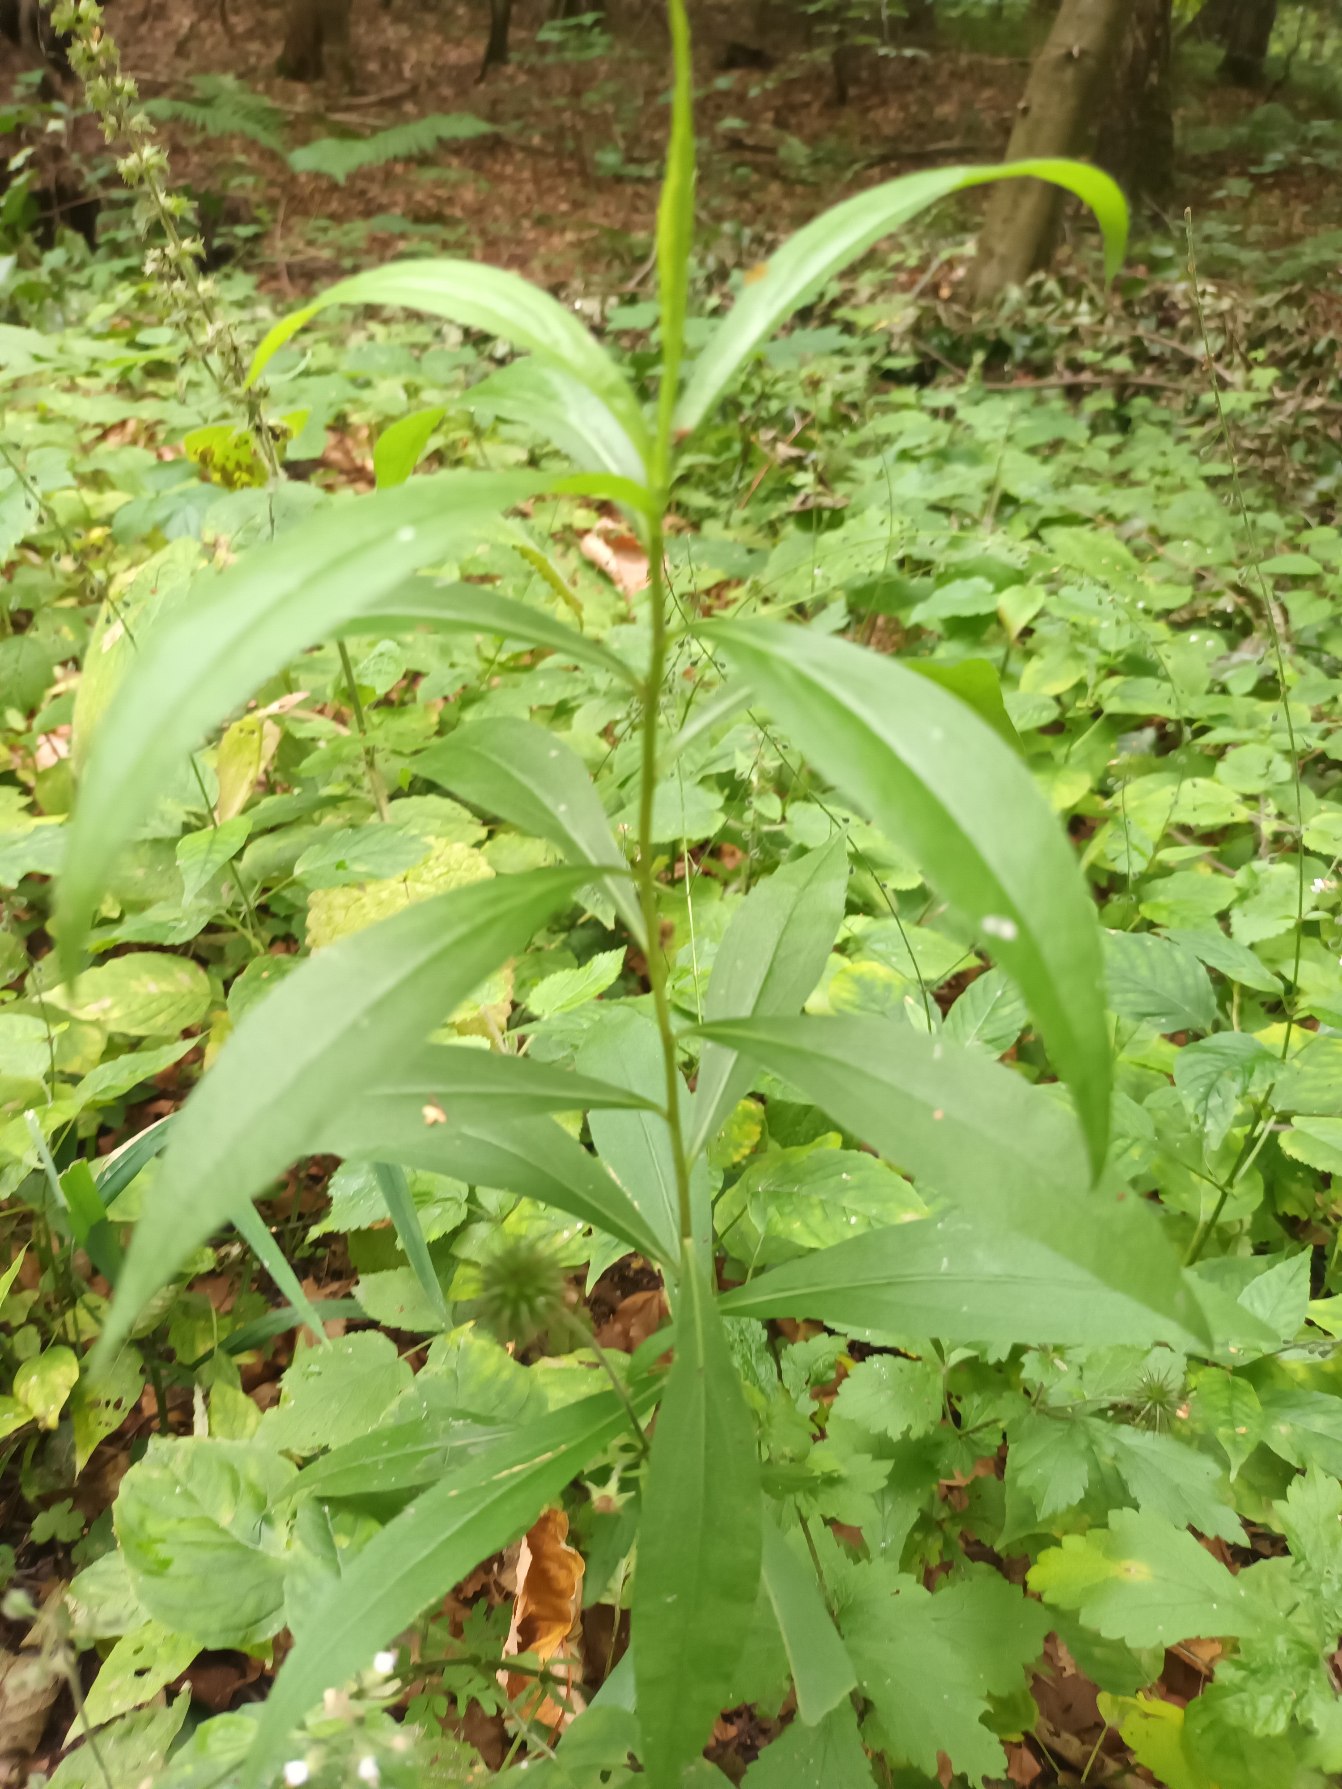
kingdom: Plantae
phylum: Tracheophyta
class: Magnoliopsida
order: Asterales
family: Asteraceae
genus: Solidago
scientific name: Solidago gigantea
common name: Sildig gyldenris
